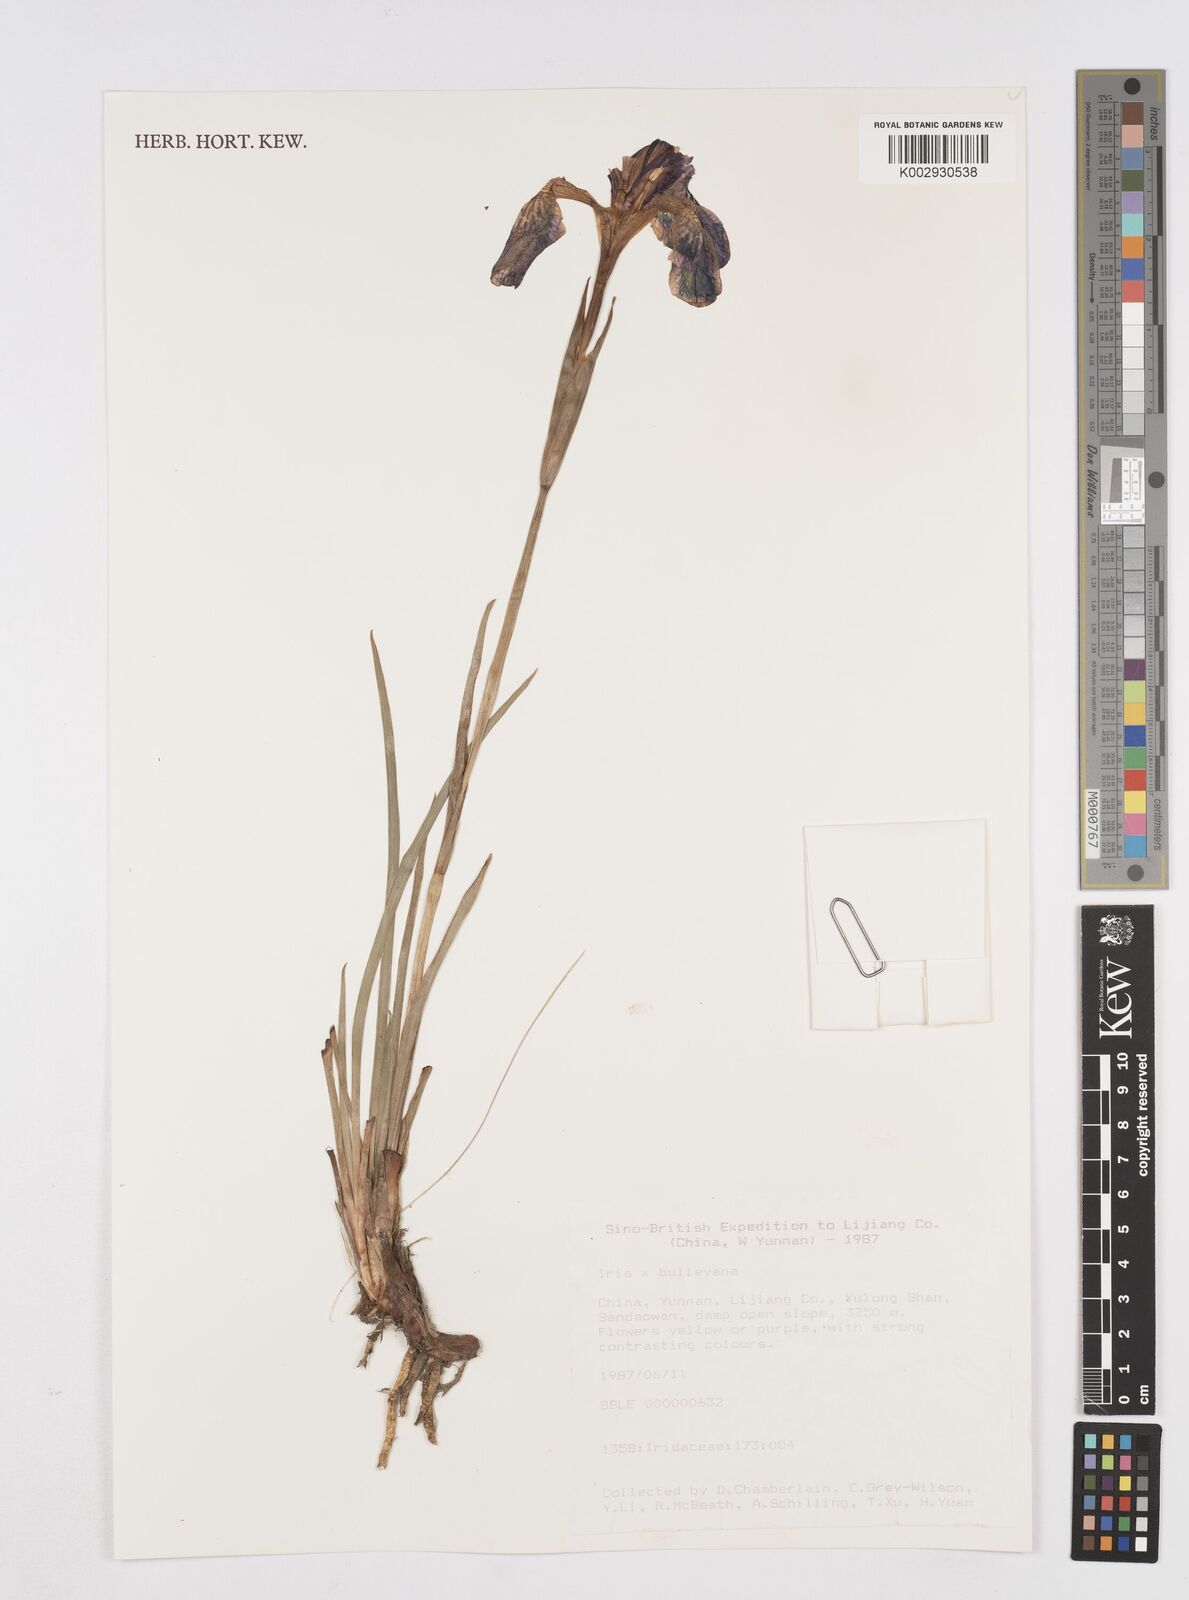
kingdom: Plantae
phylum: Tracheophyta
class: Liliopsida
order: Asparagales
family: Iridaceae
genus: Iris
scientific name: Iris bulleyana
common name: Southwest iris
